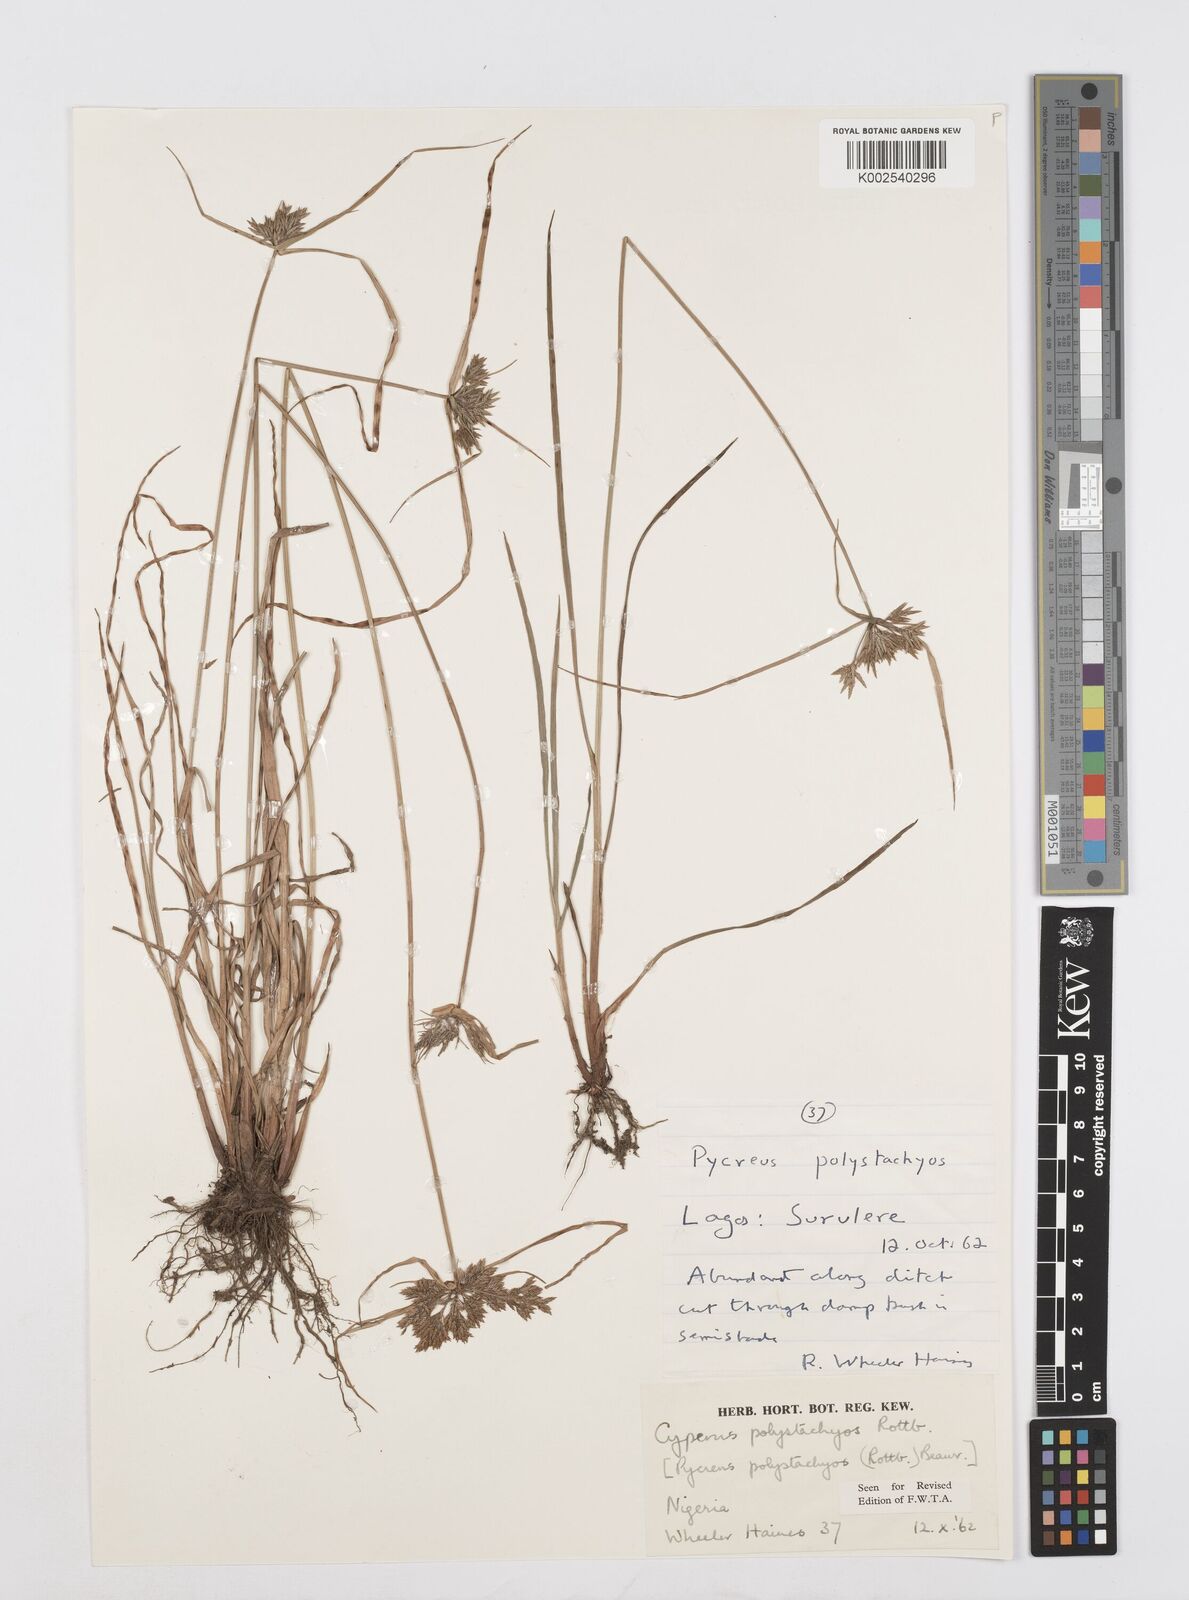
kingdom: Plantae
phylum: Tracheophyta
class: Liliopsida
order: Poales
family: Cyperaceae
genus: Cyperus
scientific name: Cyperus polystachyos
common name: Bunchy flat sedge
